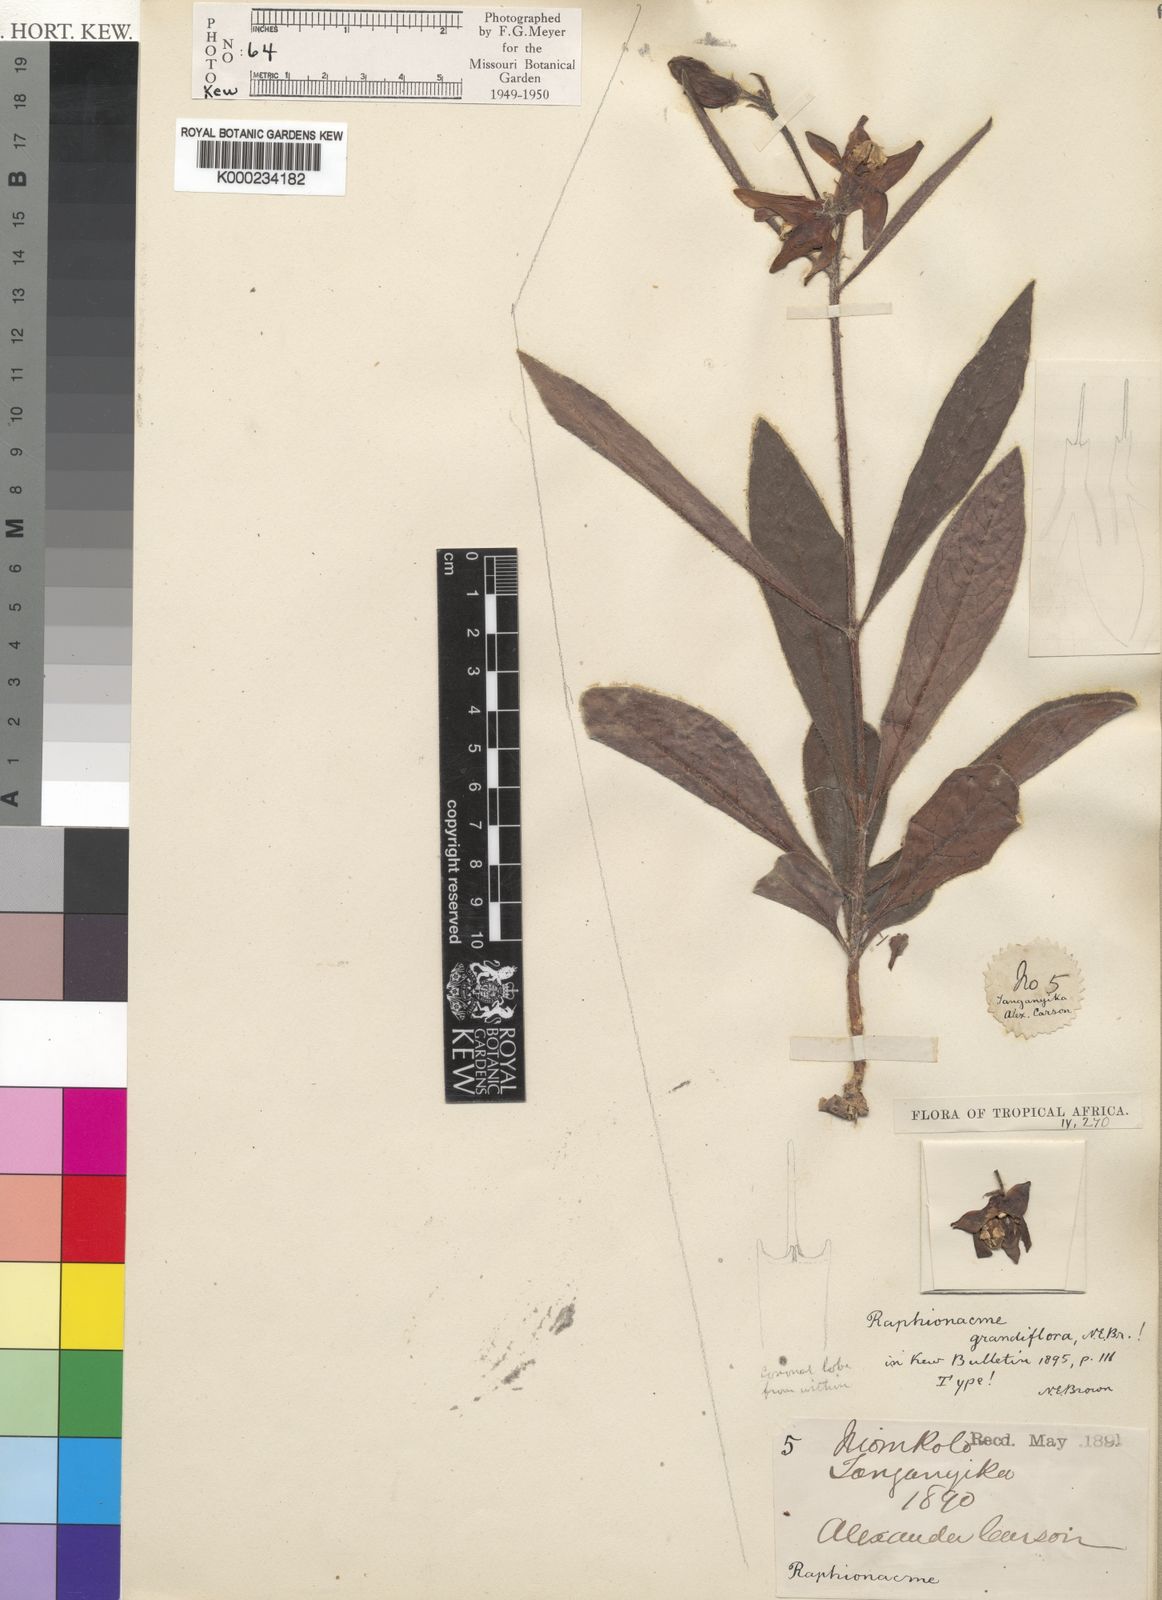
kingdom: Plantae
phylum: Tracheophyta
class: Magnoliopsida
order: Gentianales
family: Apocynaceae
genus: Raphionacme
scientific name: Raphionacme grandiflora
